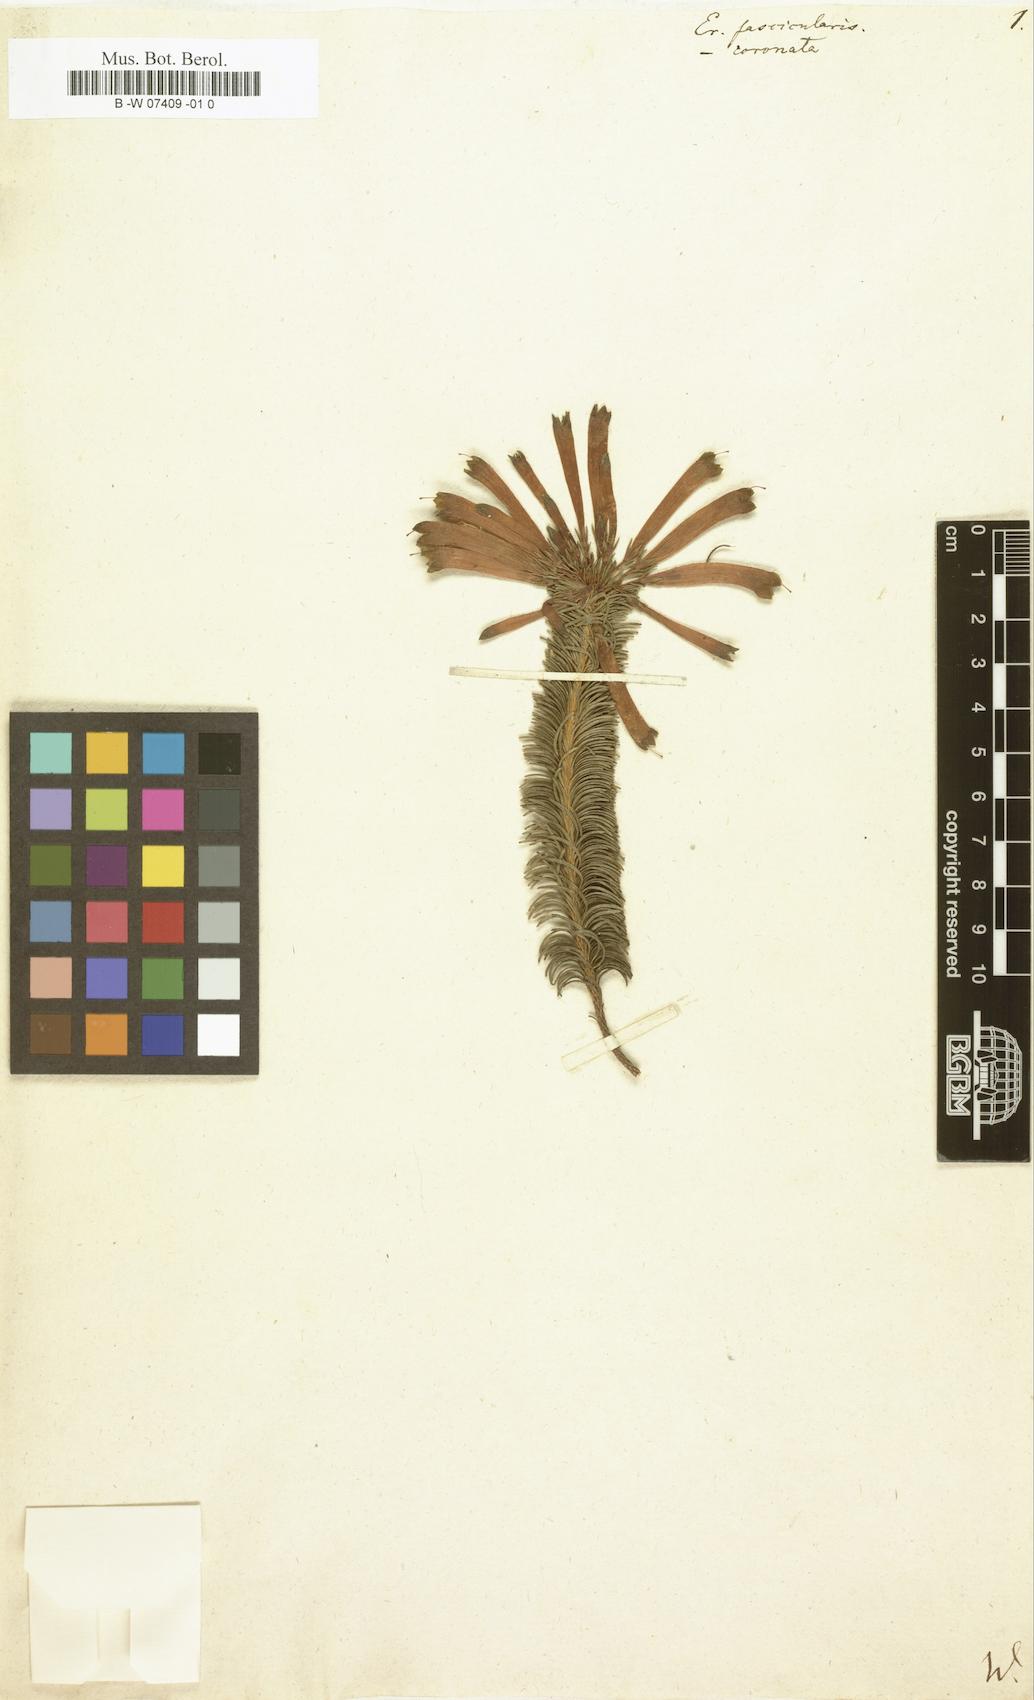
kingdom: Plantae
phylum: Tracheophyta
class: Magnoliopsida
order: Ericales
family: Ericaceae
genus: Erica
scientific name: Erica fascicularis
